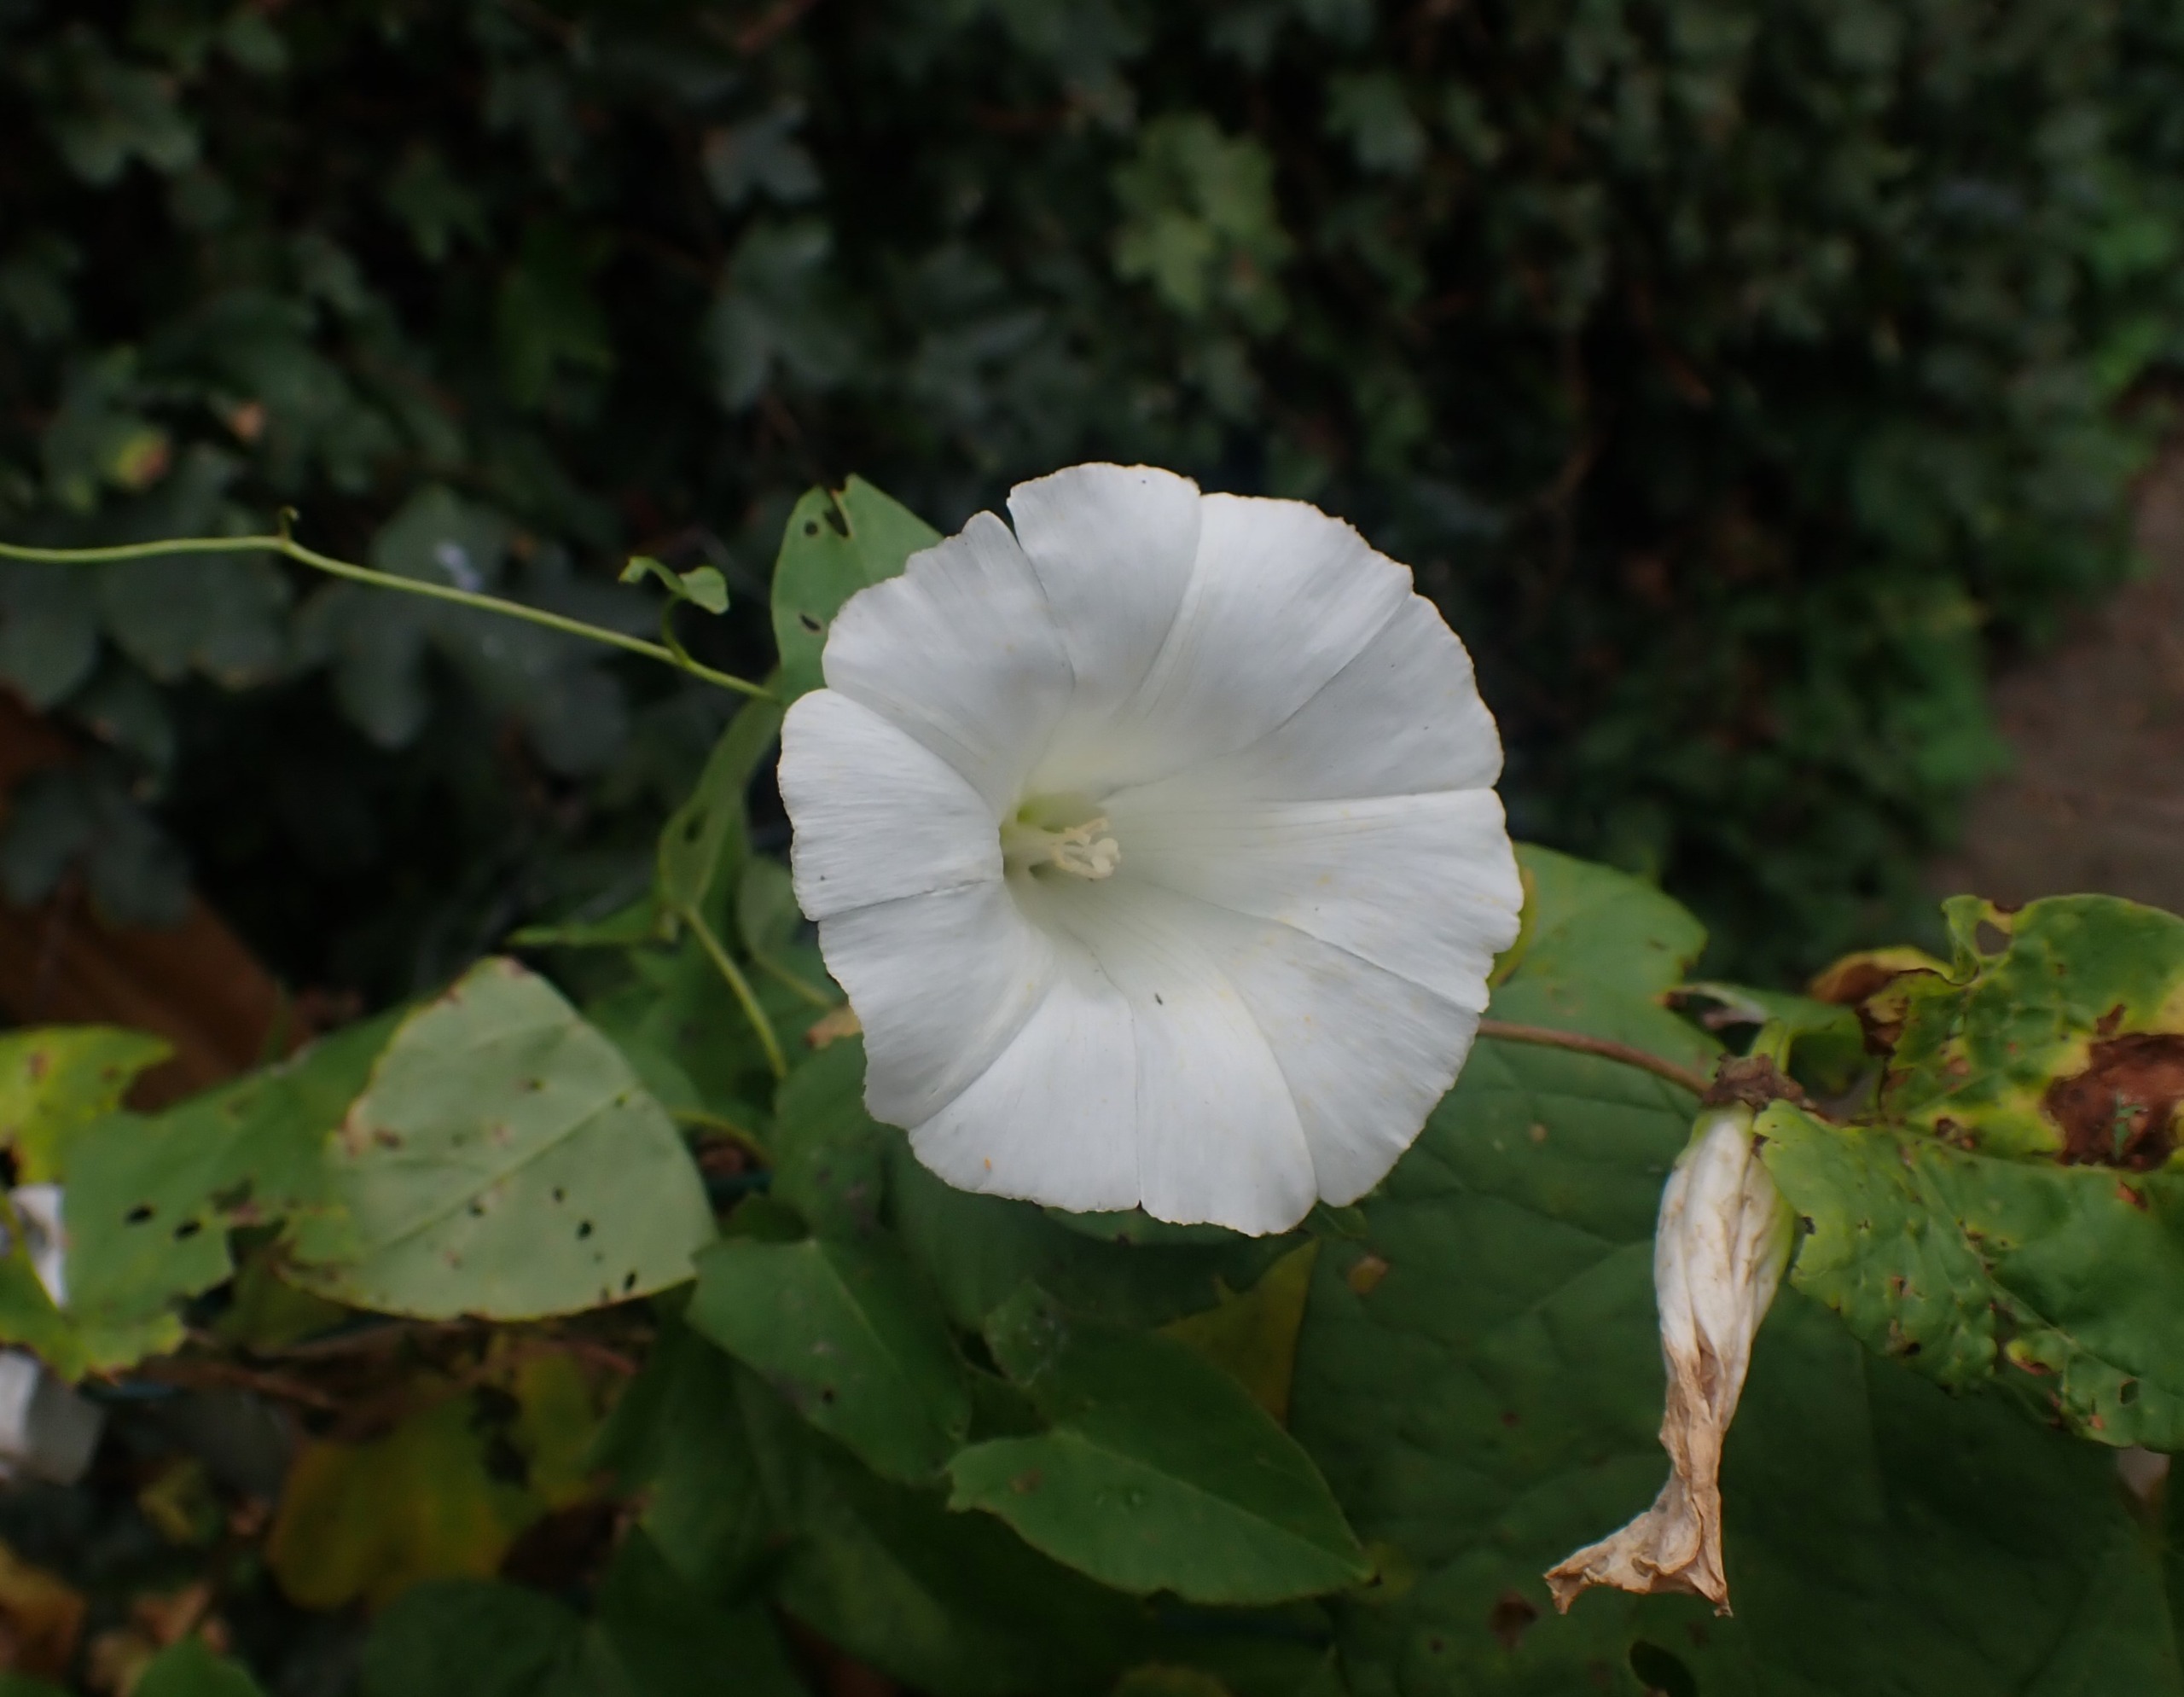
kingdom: Plantae
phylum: Tracheophyta
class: Magnoliopsida
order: Solanales
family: Convolvulaceae
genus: Calystegia
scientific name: Calystegia sepium
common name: Gærde-snerle
